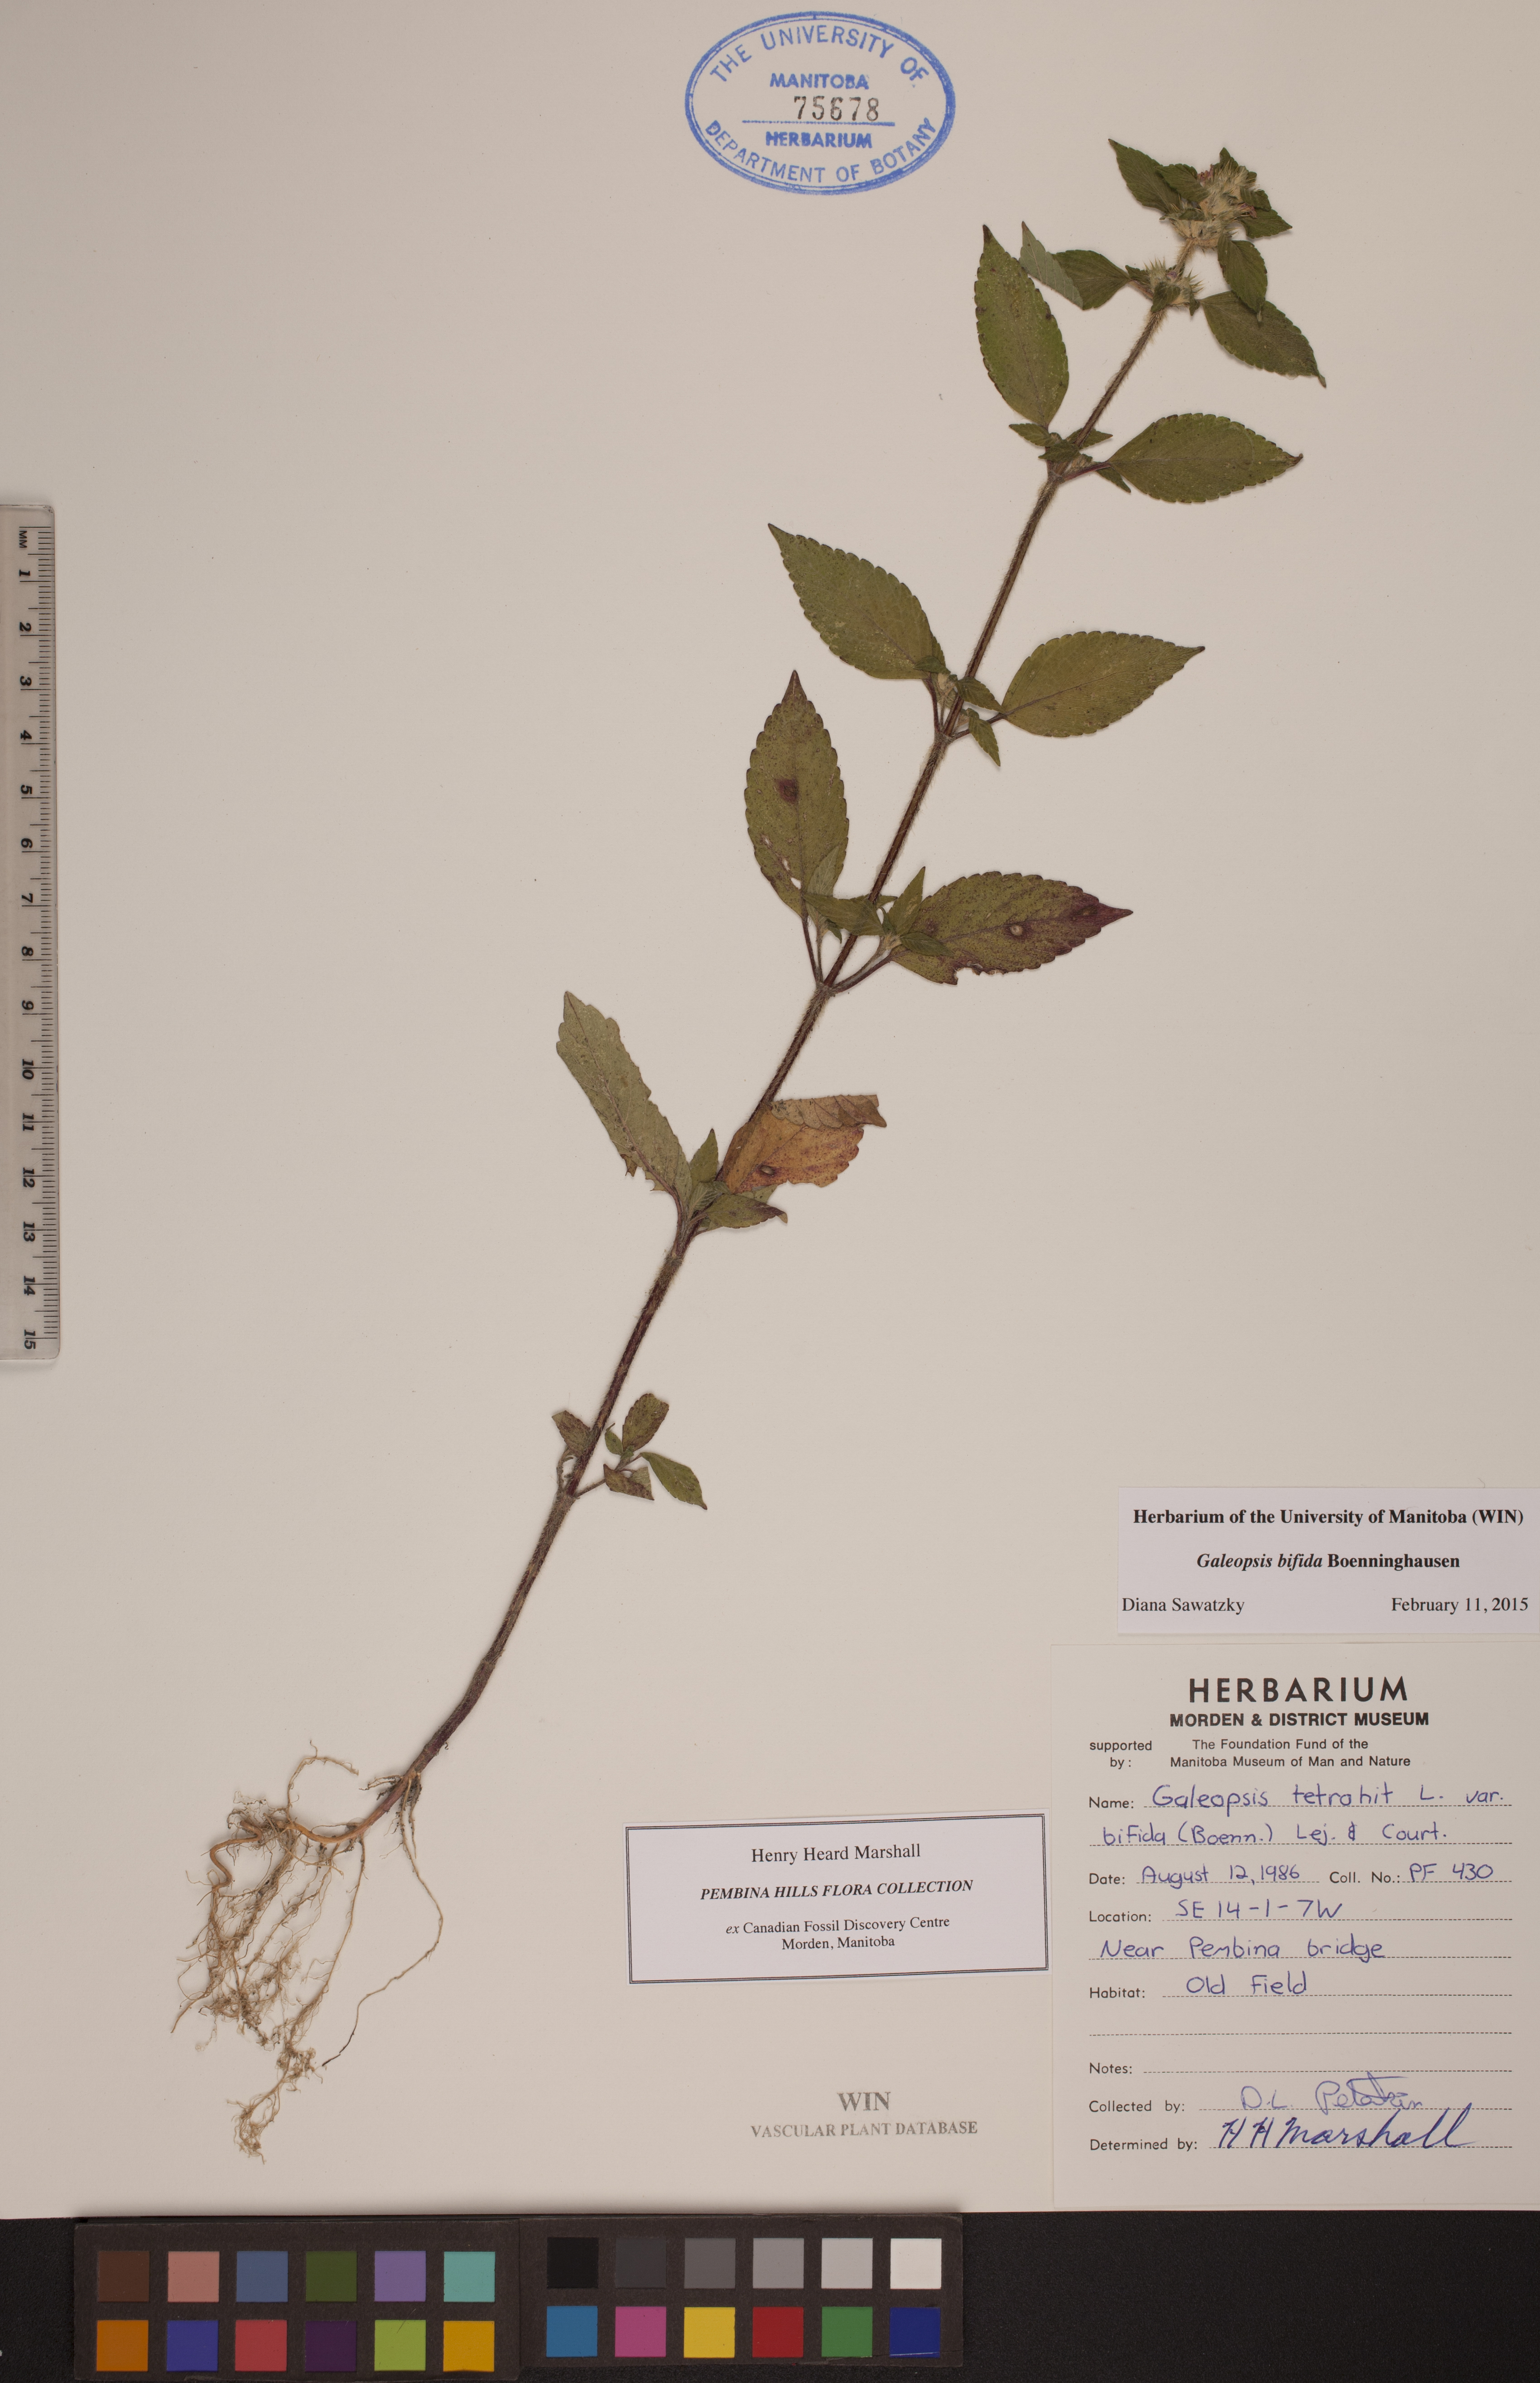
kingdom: Plantae
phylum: Tracheophyta
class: Magnoliopsida
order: Lamiales
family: Lamiaceae
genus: Galeopsis
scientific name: Galeopsis bifida
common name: Bifid hemp-nettle
